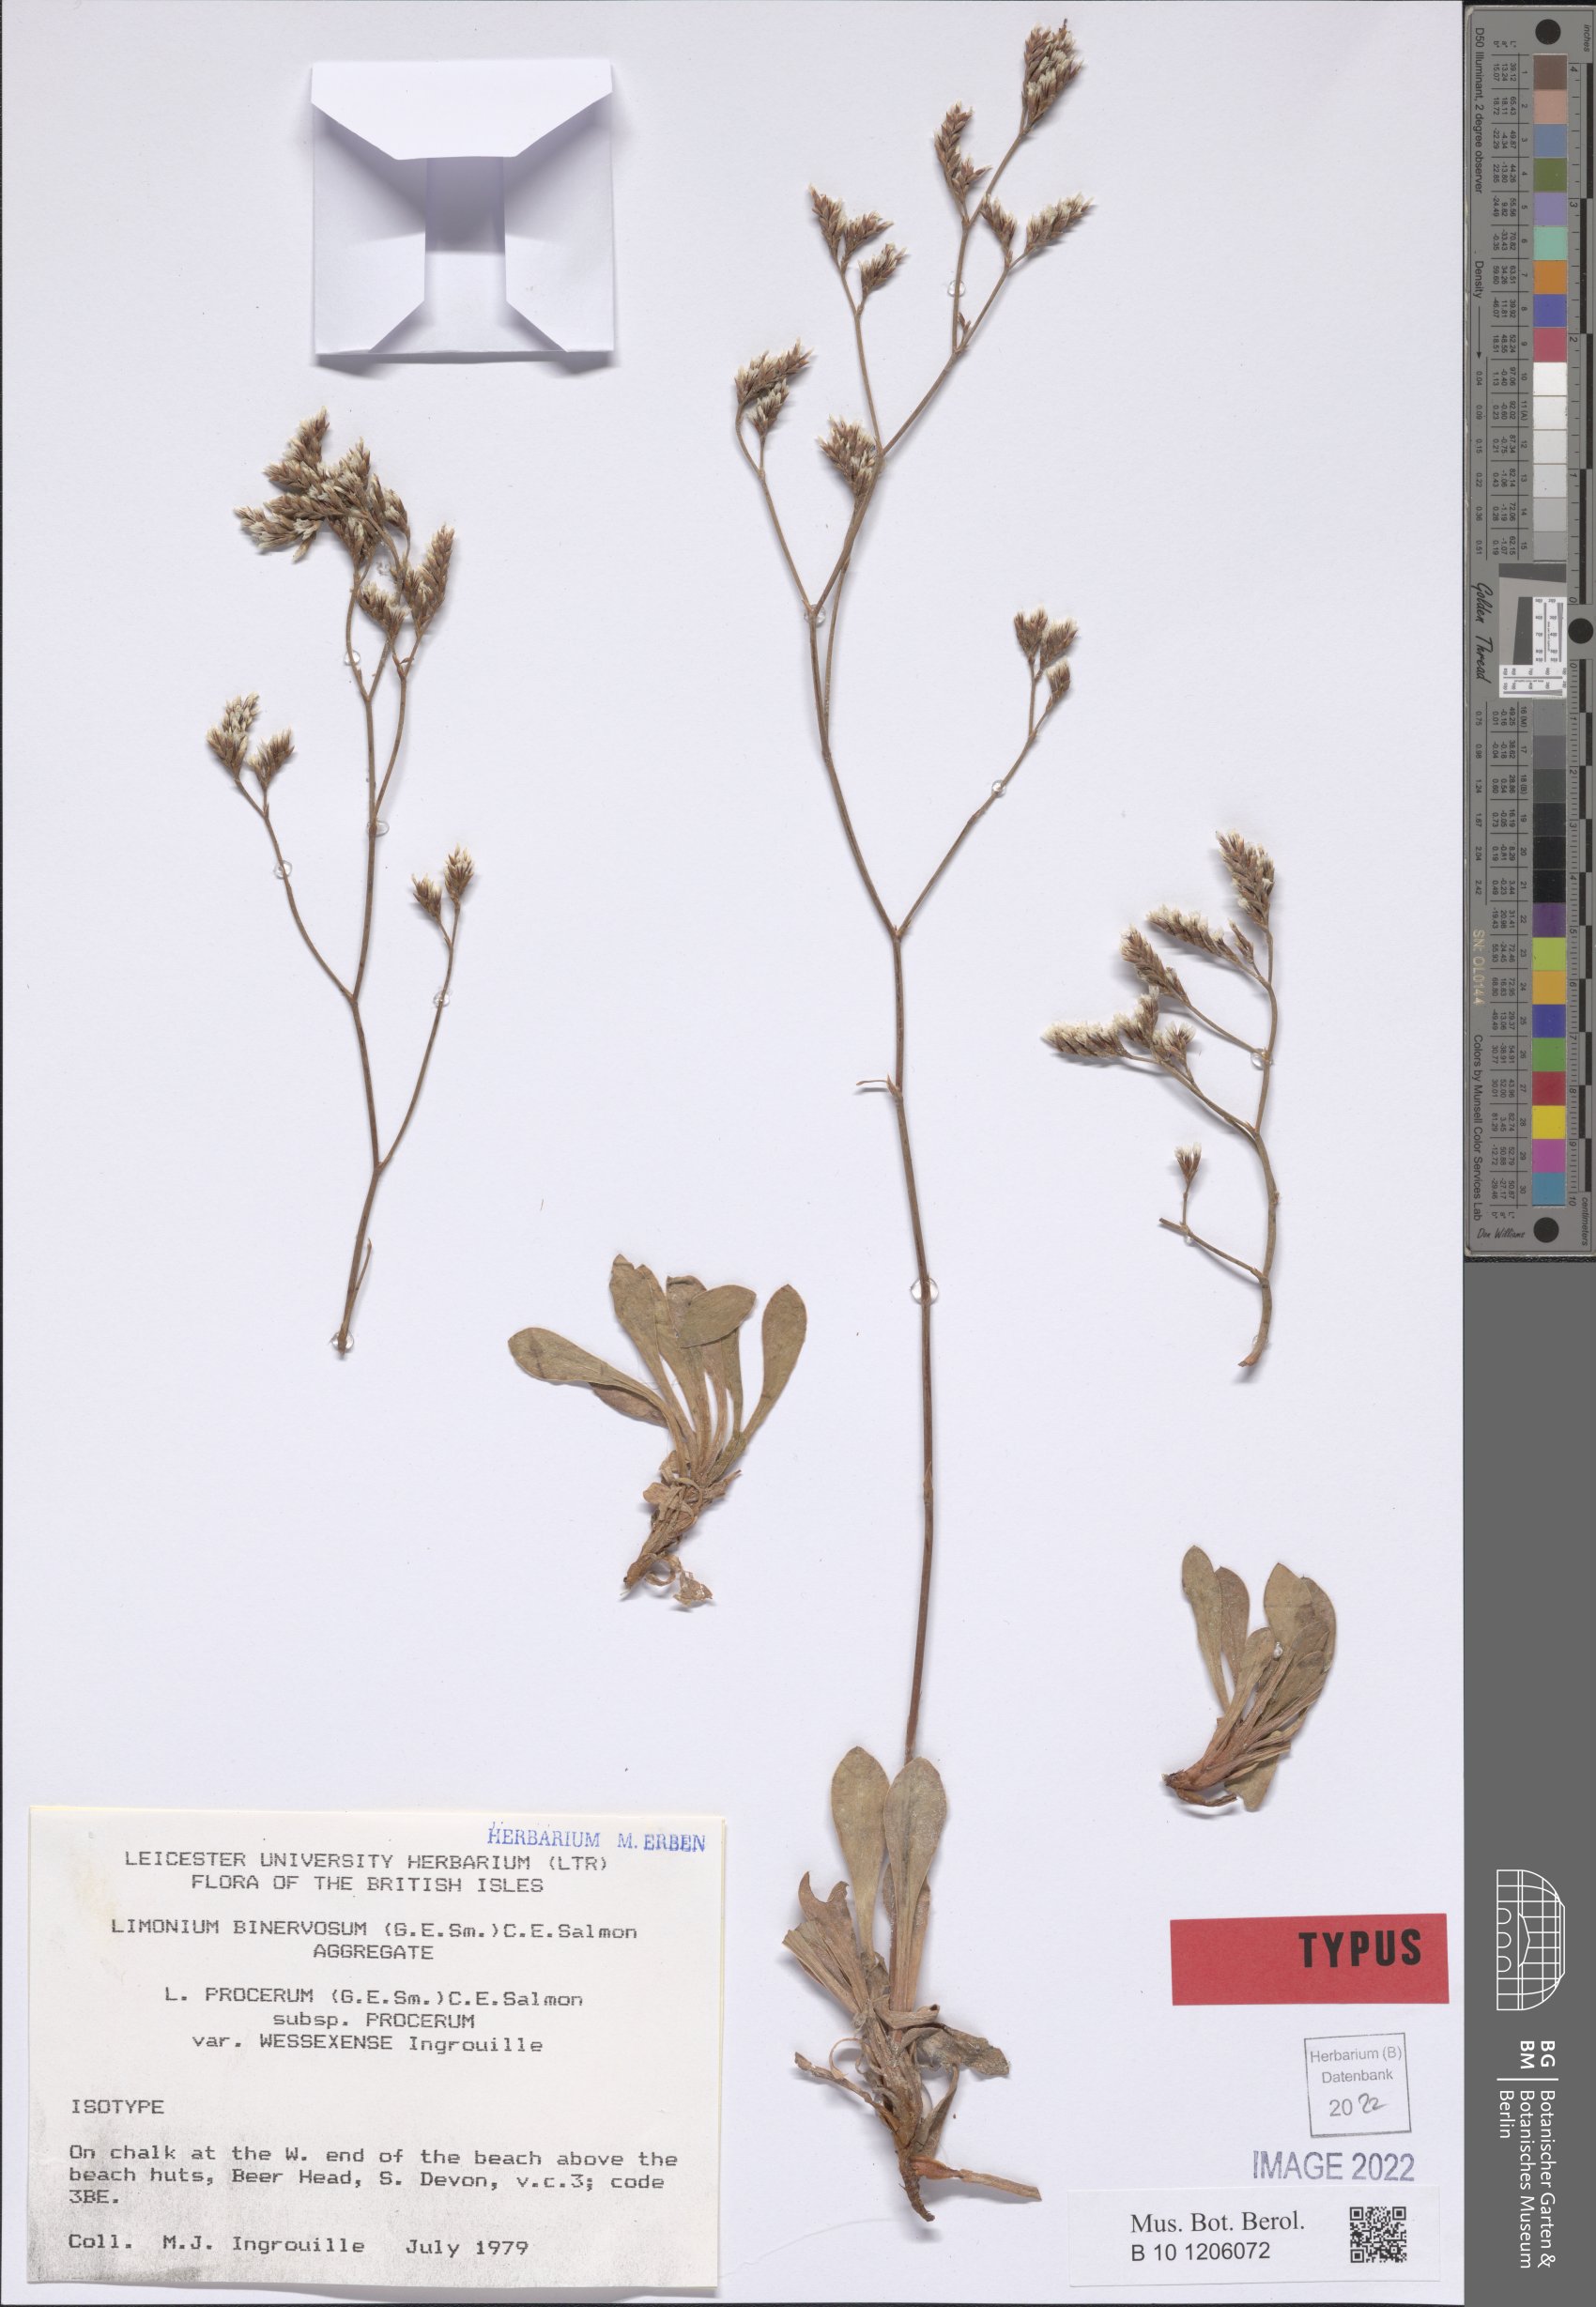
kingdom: Plantae
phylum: Tracheophyta
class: Magnoliopsida
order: Caryophyllales
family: Plumbaginaceae
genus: Limonium
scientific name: Limonium wessexense
